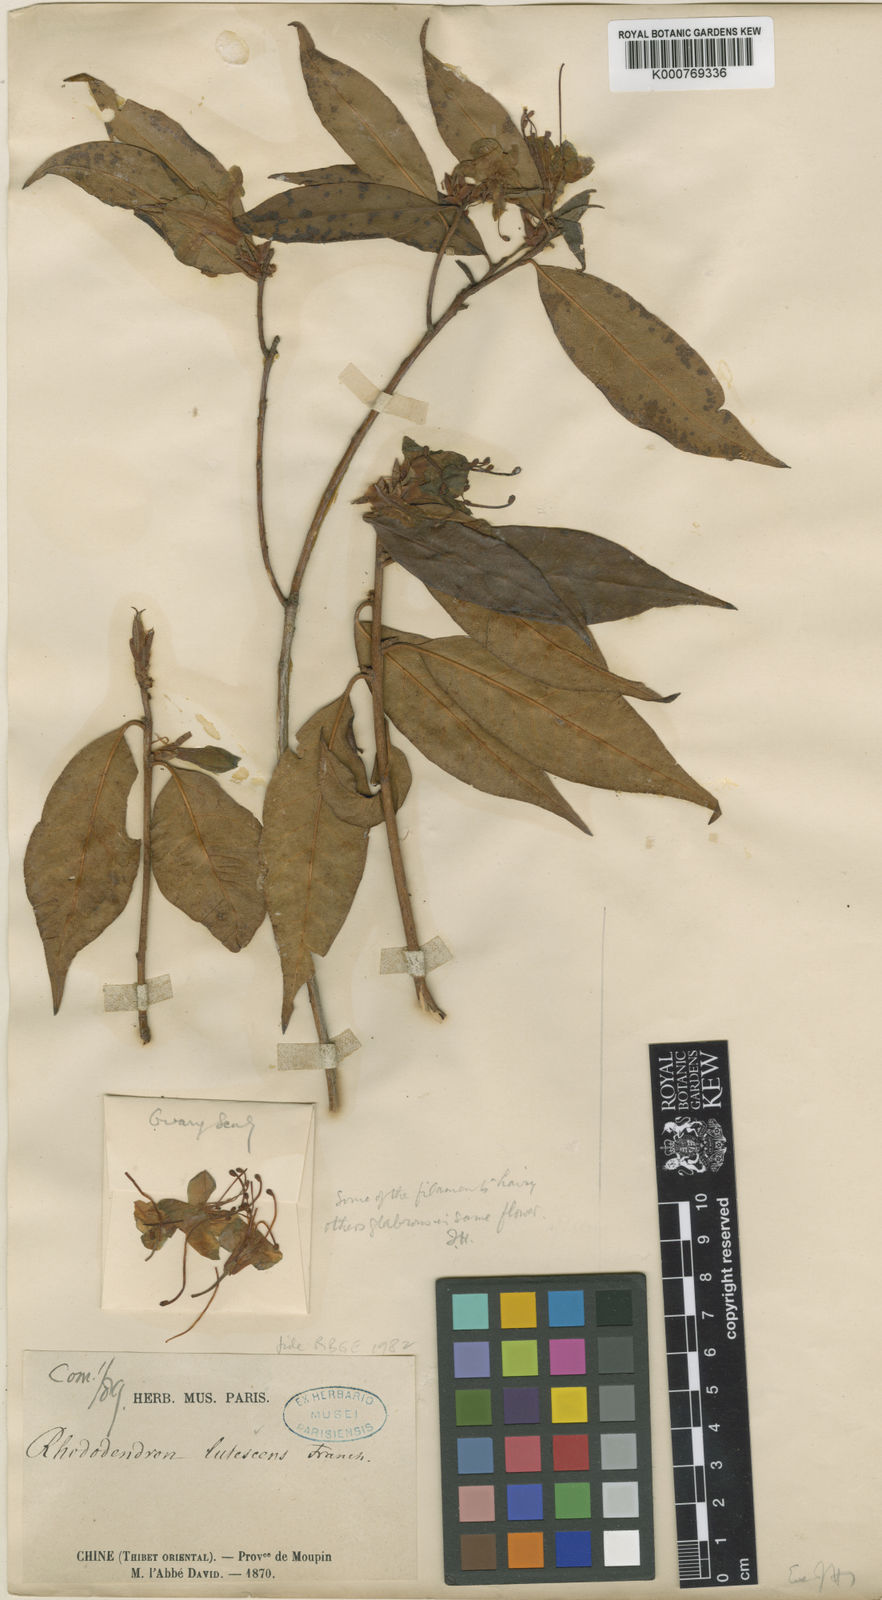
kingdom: Plantae
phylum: Tracheophyta
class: Magnoliopsida
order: Ericales
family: Ericaceae
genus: Rhododendron
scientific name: Rhododendron lutescens
